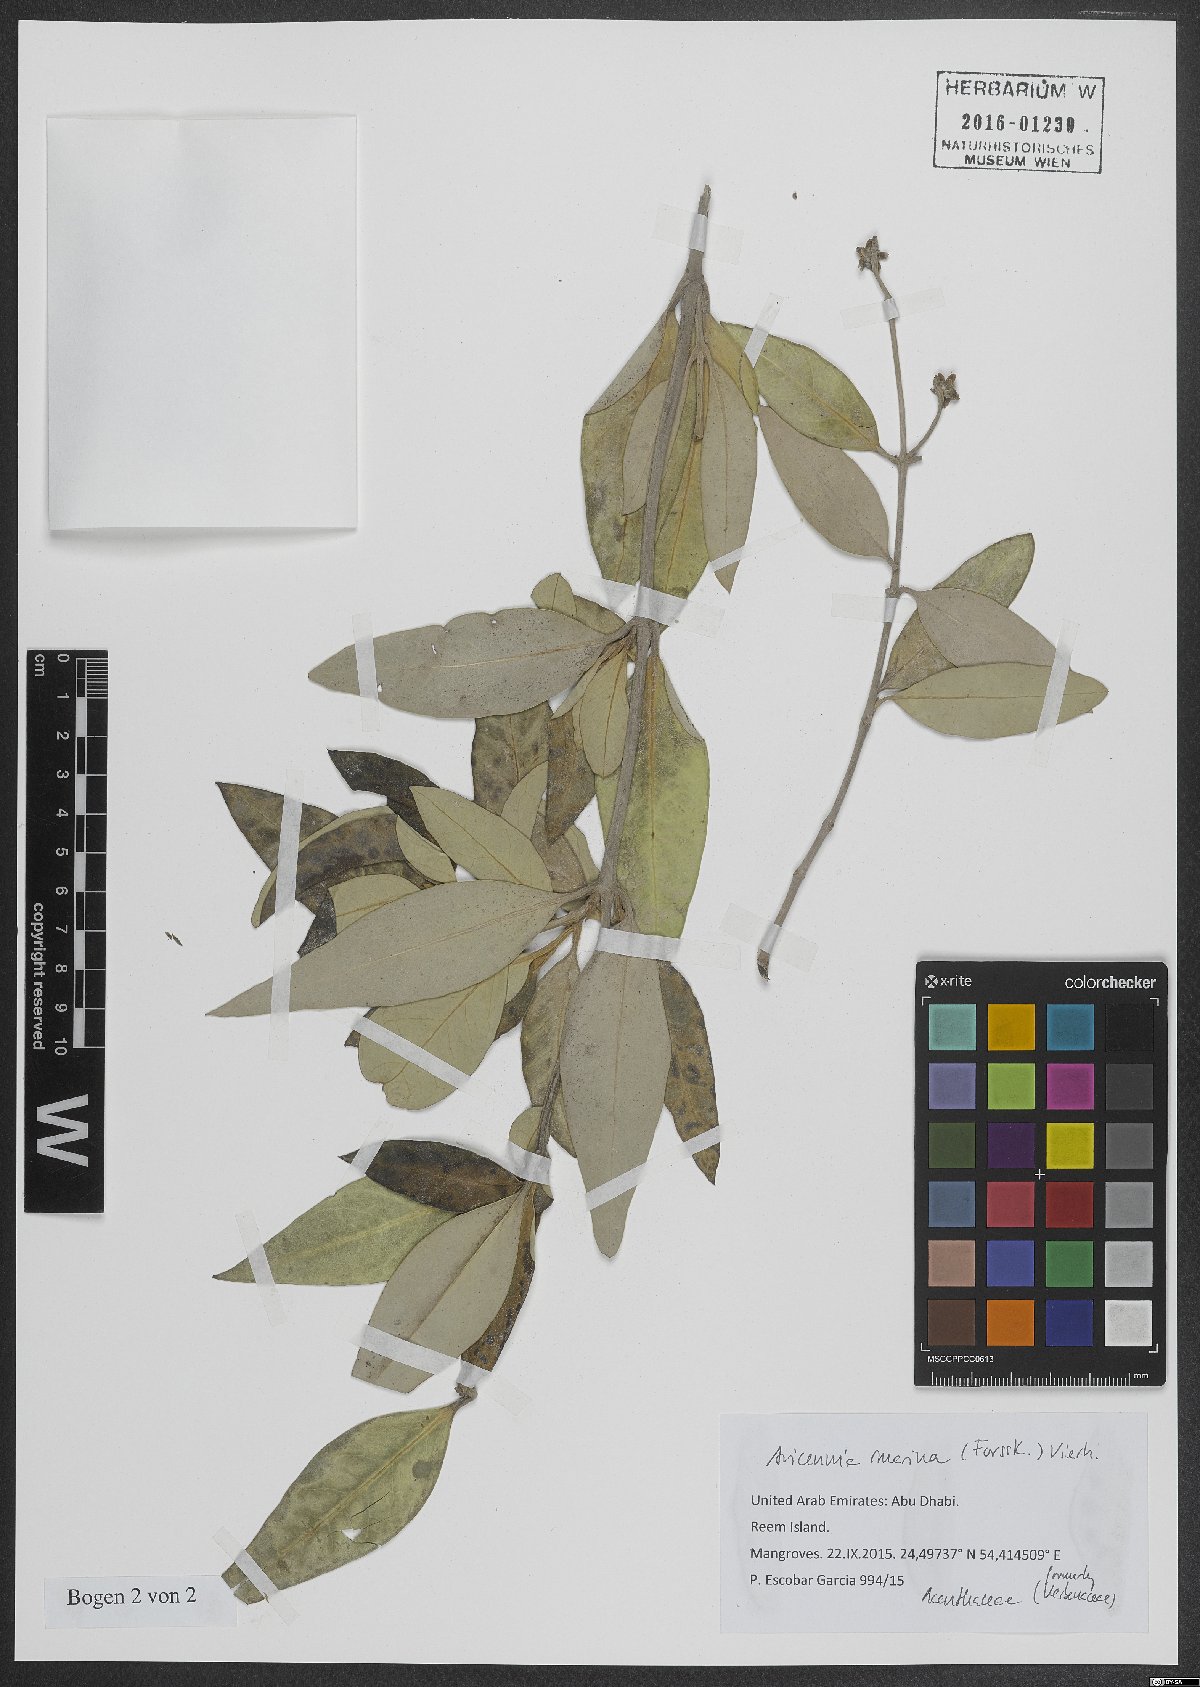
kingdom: Plantae
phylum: Tracheophyta
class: Magnoliopsida
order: Lamiales
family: Acanthaceae
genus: Avicennia
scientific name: Avicennia marina
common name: Gray mangrove
